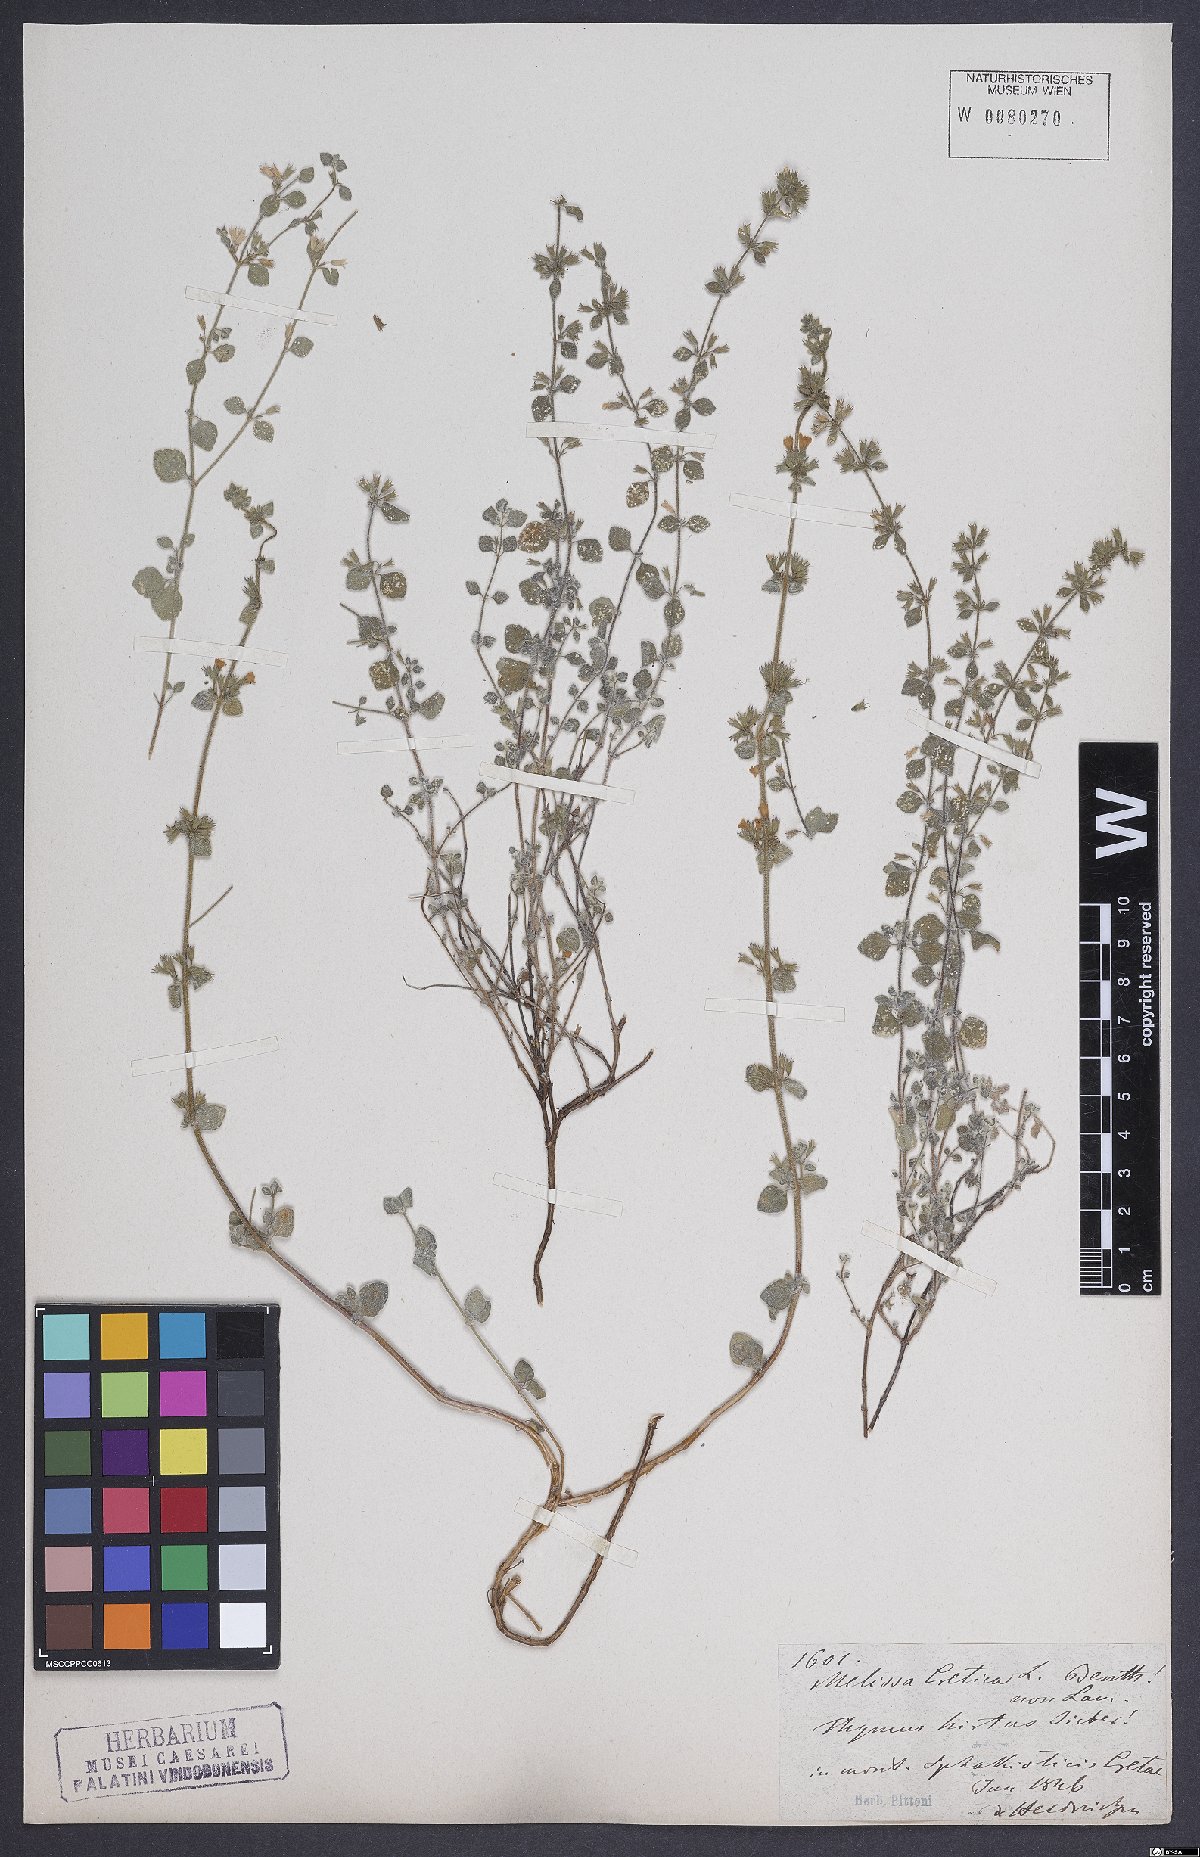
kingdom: Plantae
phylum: Tracheophyta
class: Magnoliopsida
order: Lamiales
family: Lamiaceae
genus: Clinopodium
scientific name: Clinopodium creticum
